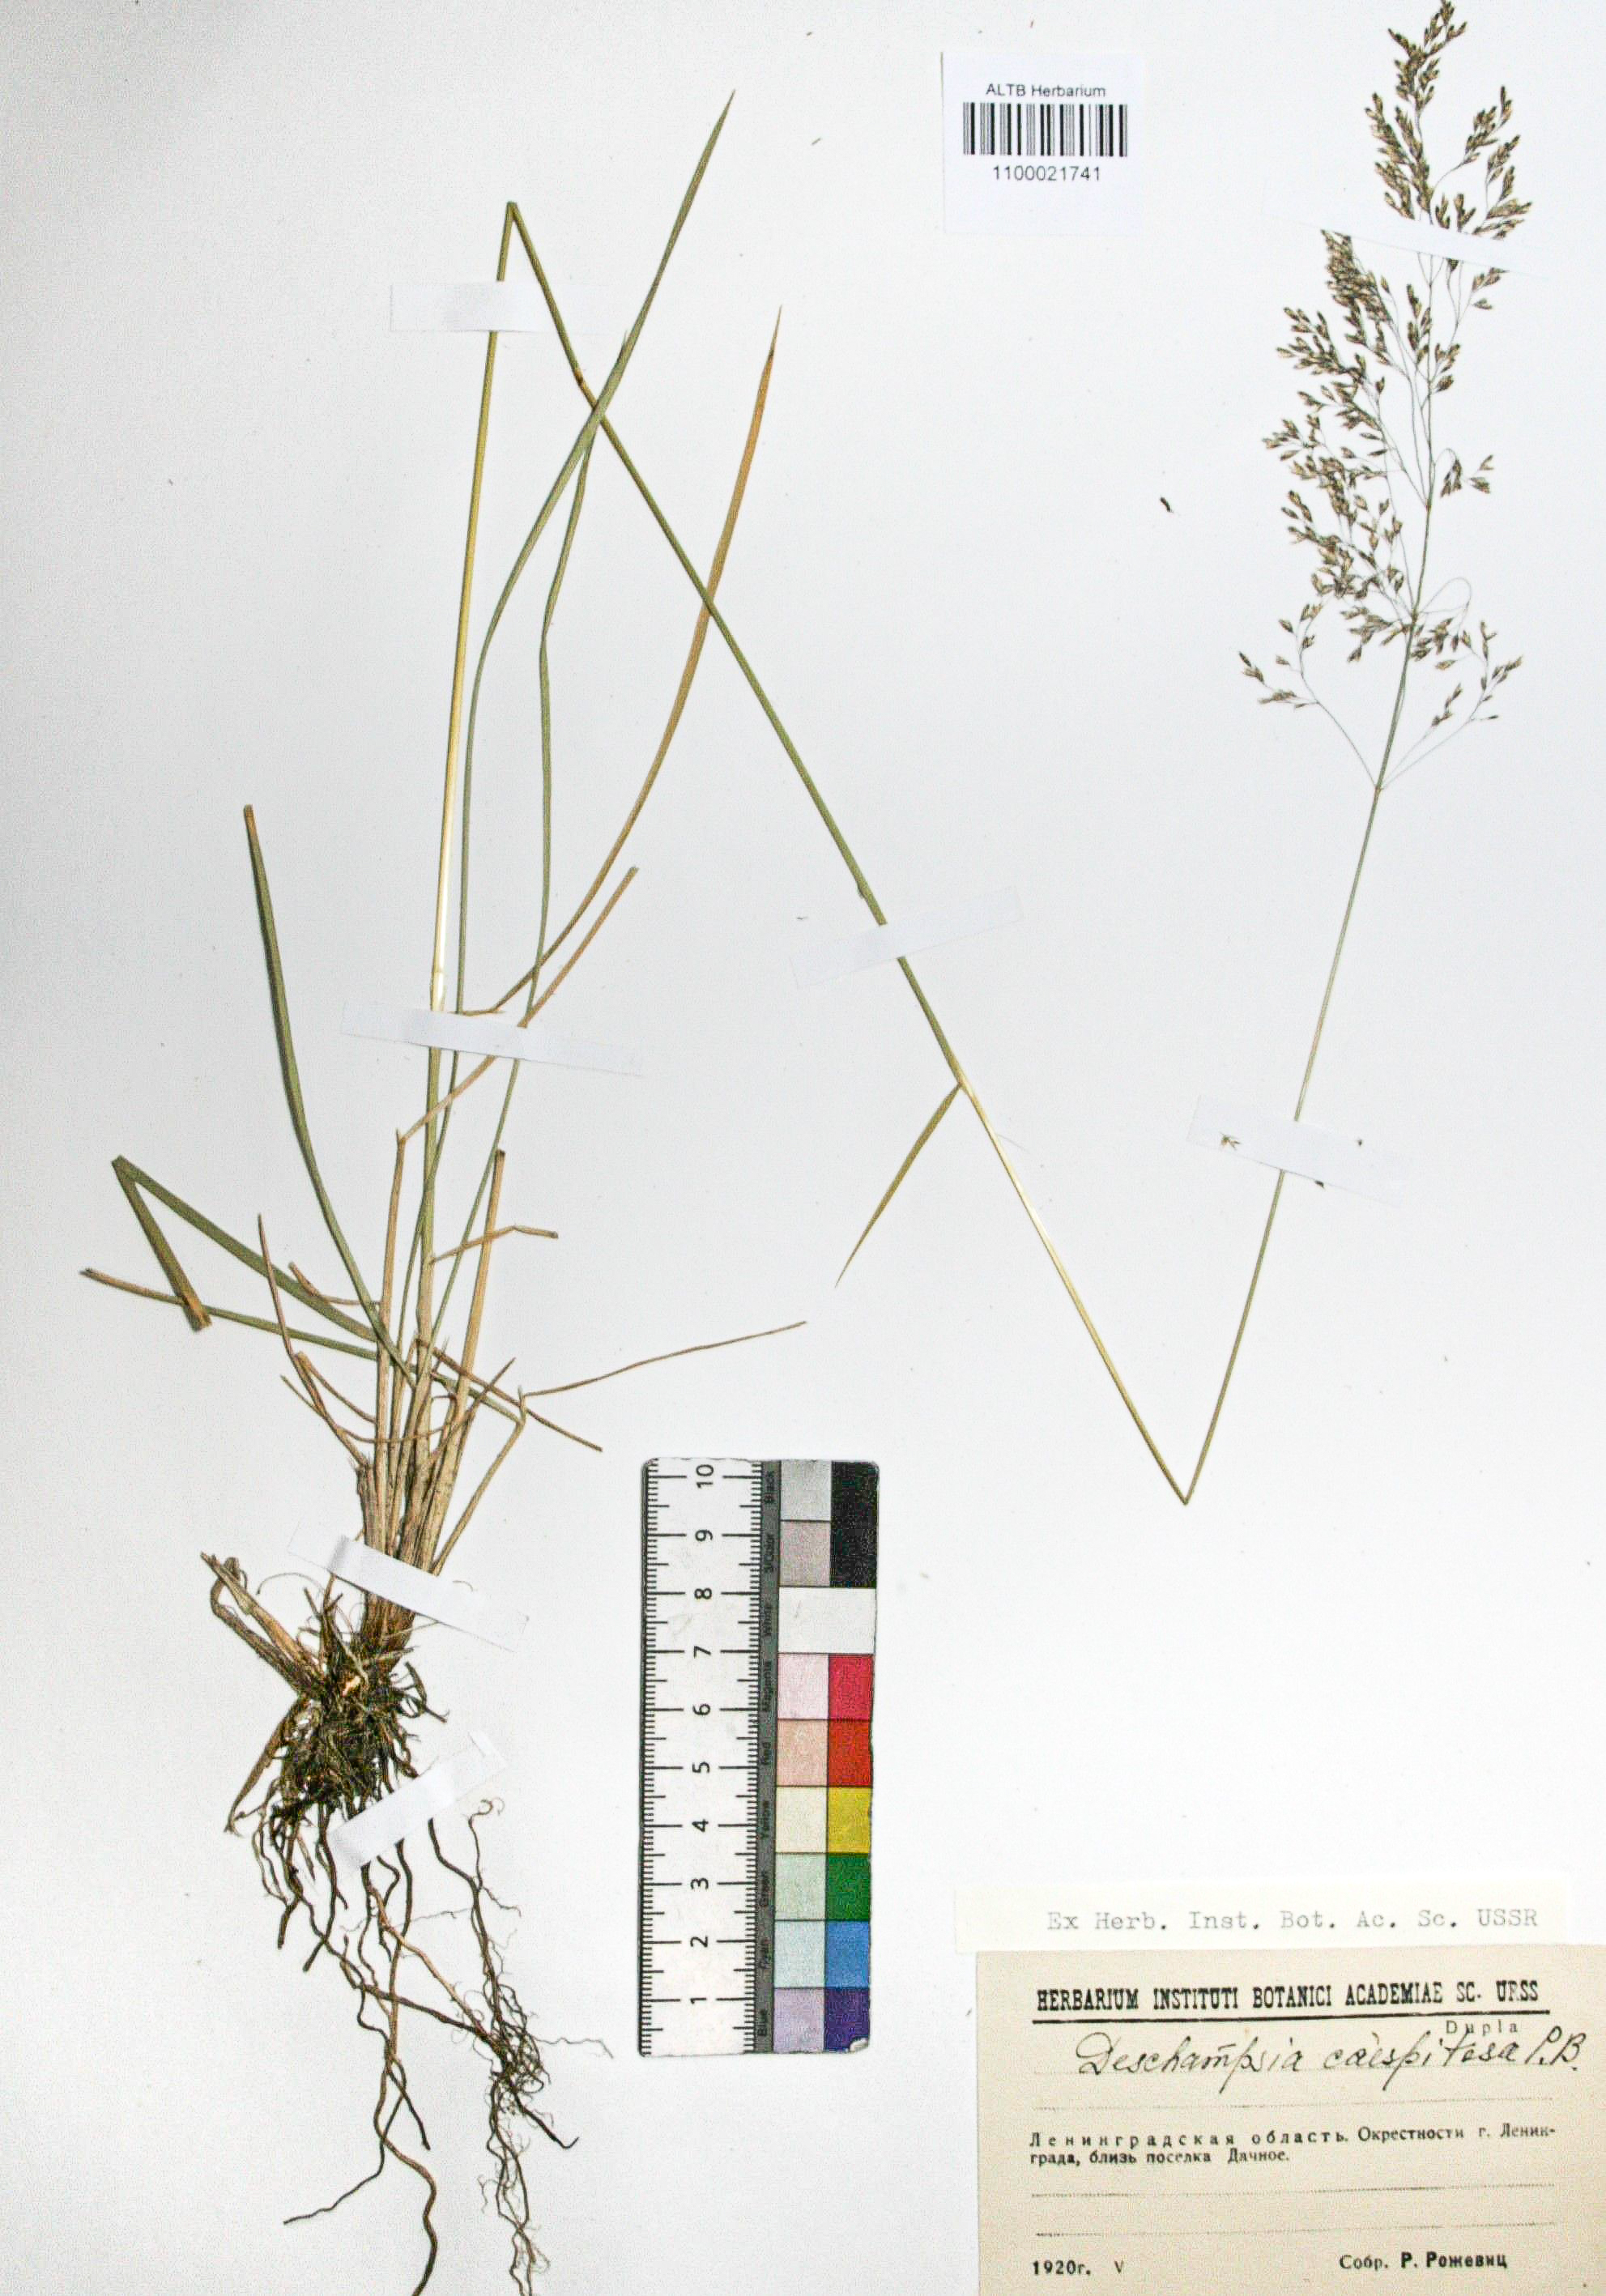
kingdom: Plantae
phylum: Tracheophyta
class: Liliopsida
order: Poales
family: Poaceae
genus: Deschampsia
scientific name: Deschampsia cespitosa
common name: Tufted hair-grass
